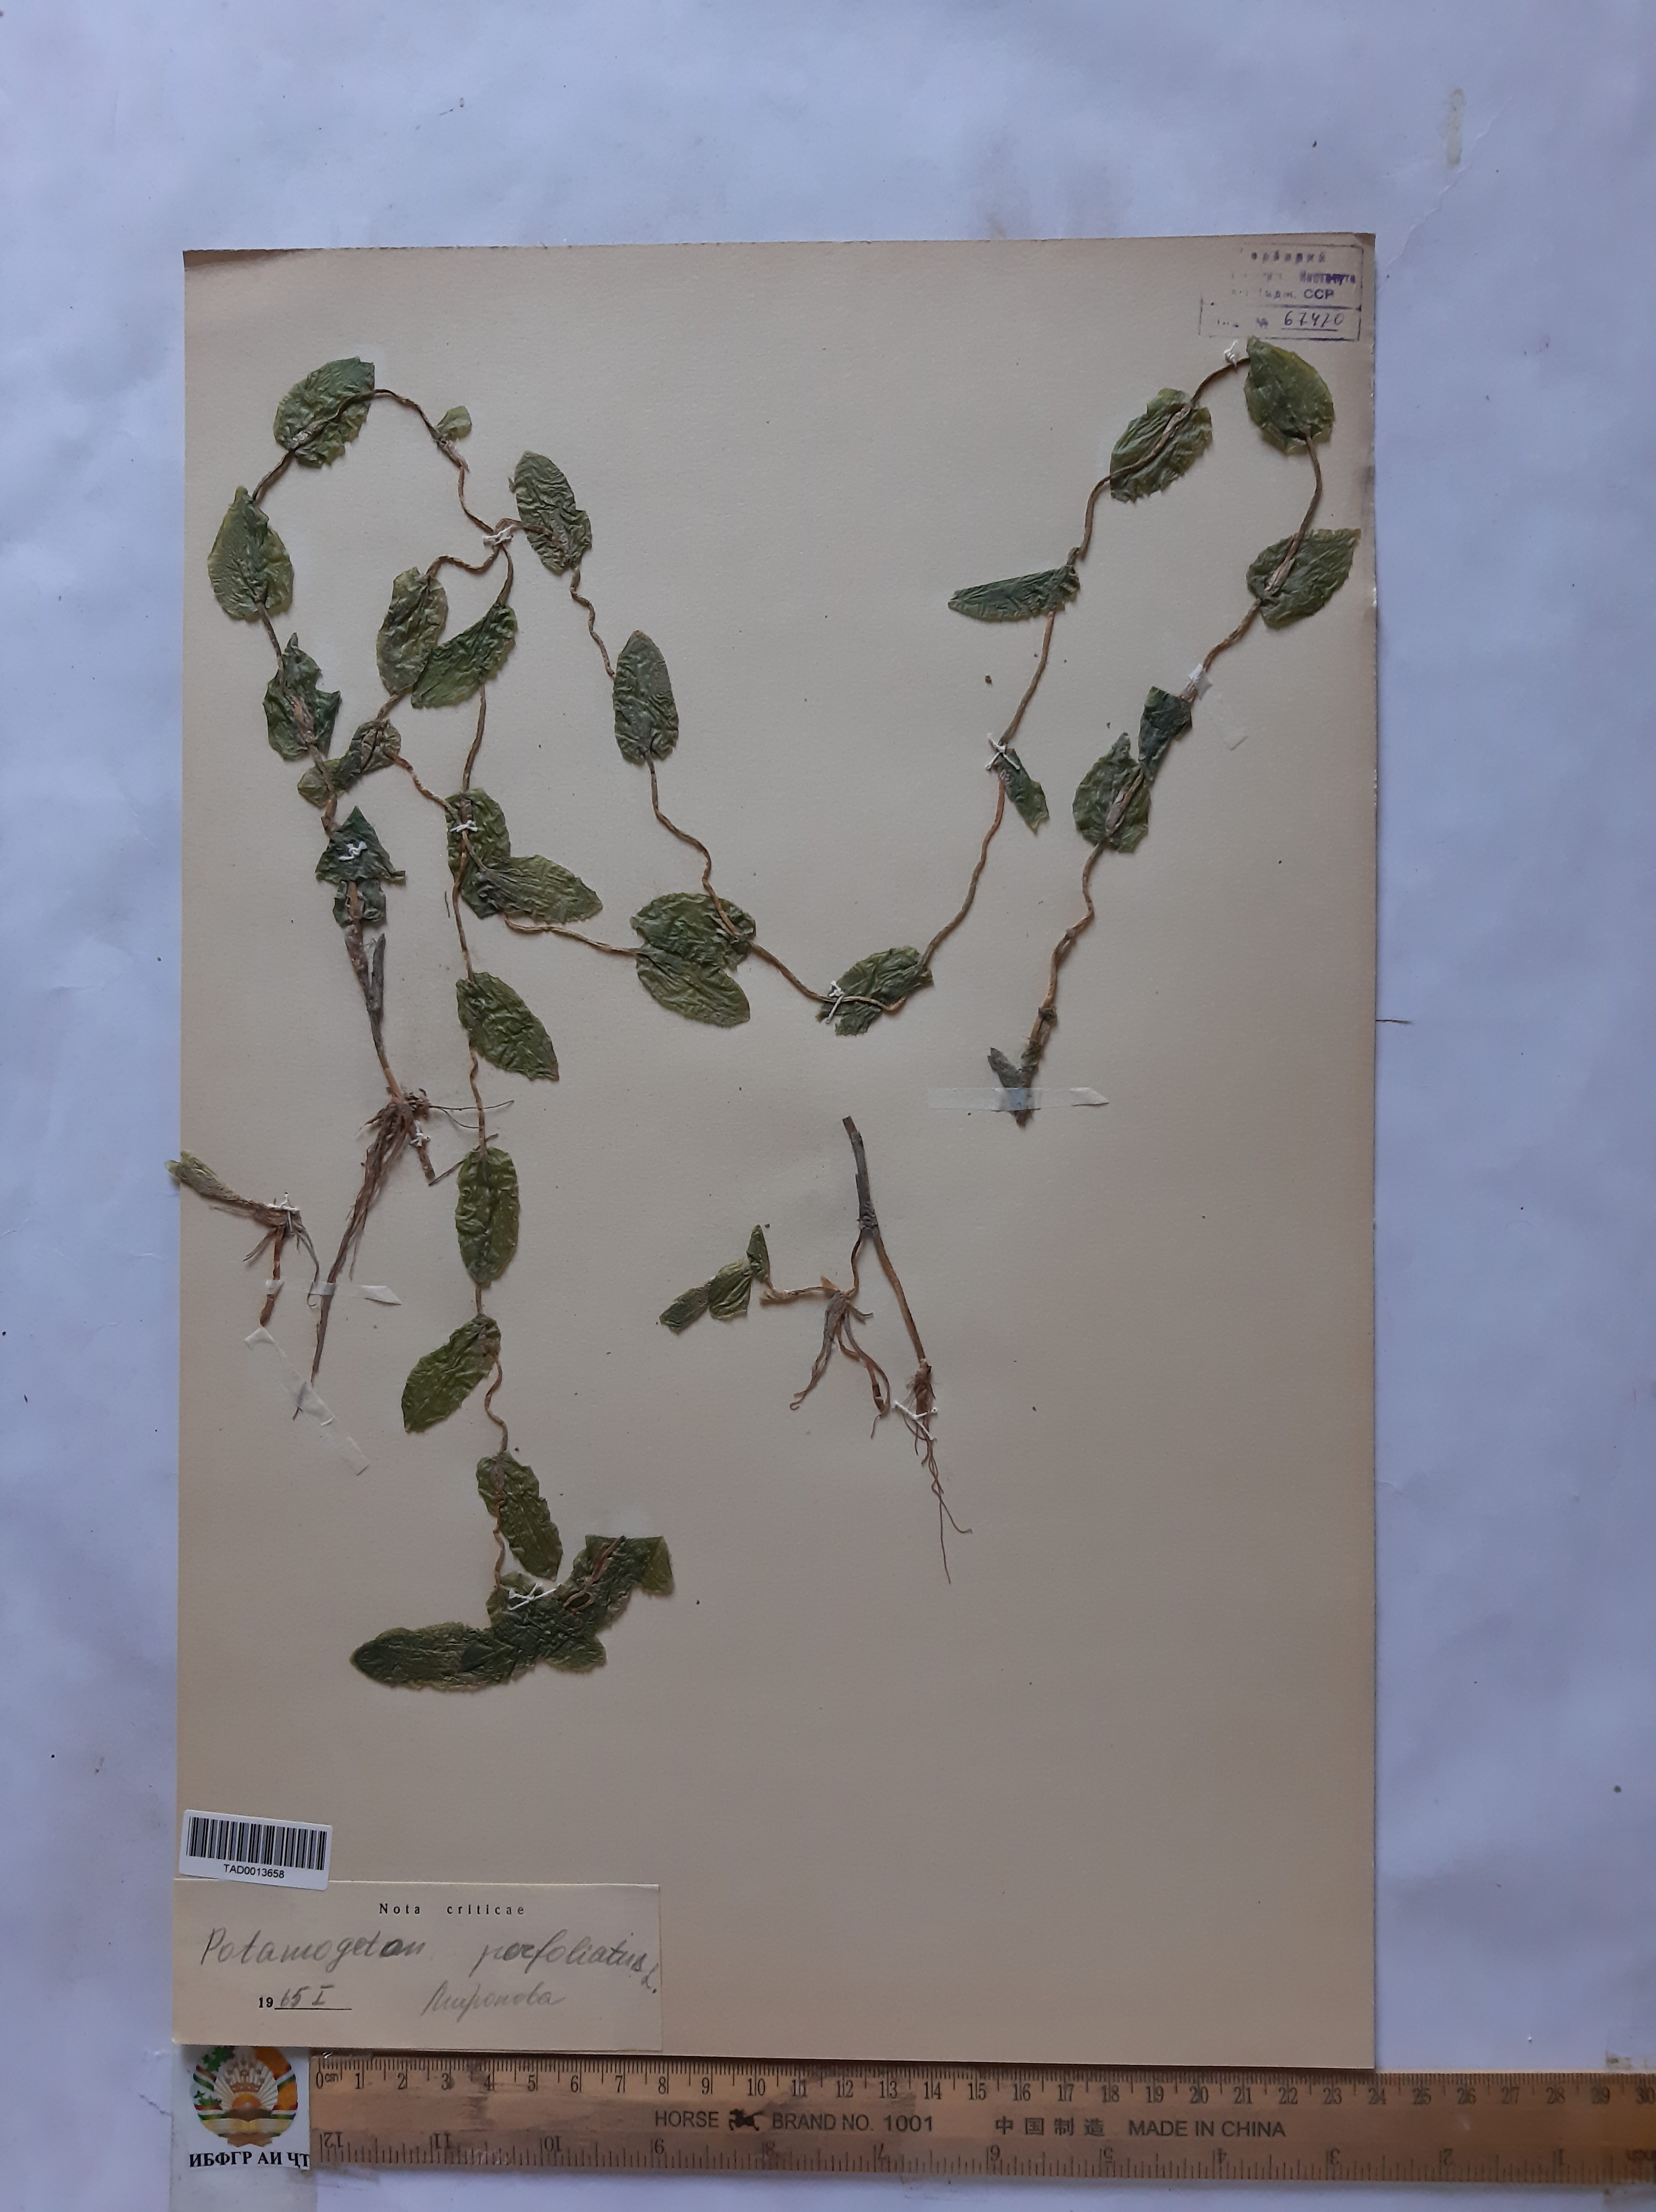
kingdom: Plantae
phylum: Tracheophyta
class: Liliopsida
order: Alismatales
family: Potamogetonaceae
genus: Potamogeton
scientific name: Potamogeton perfoliatus
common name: Perfoliate pondweed
